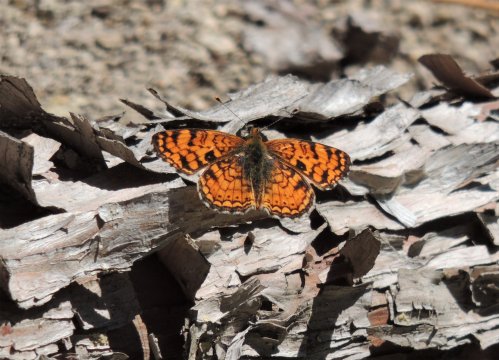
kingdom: Animalia
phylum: Arthropoda
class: Insecta
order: Lepidoptera
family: Nymphalidae
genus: Phyciodes
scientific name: Phyciodes pallida
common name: Pale Crescent
